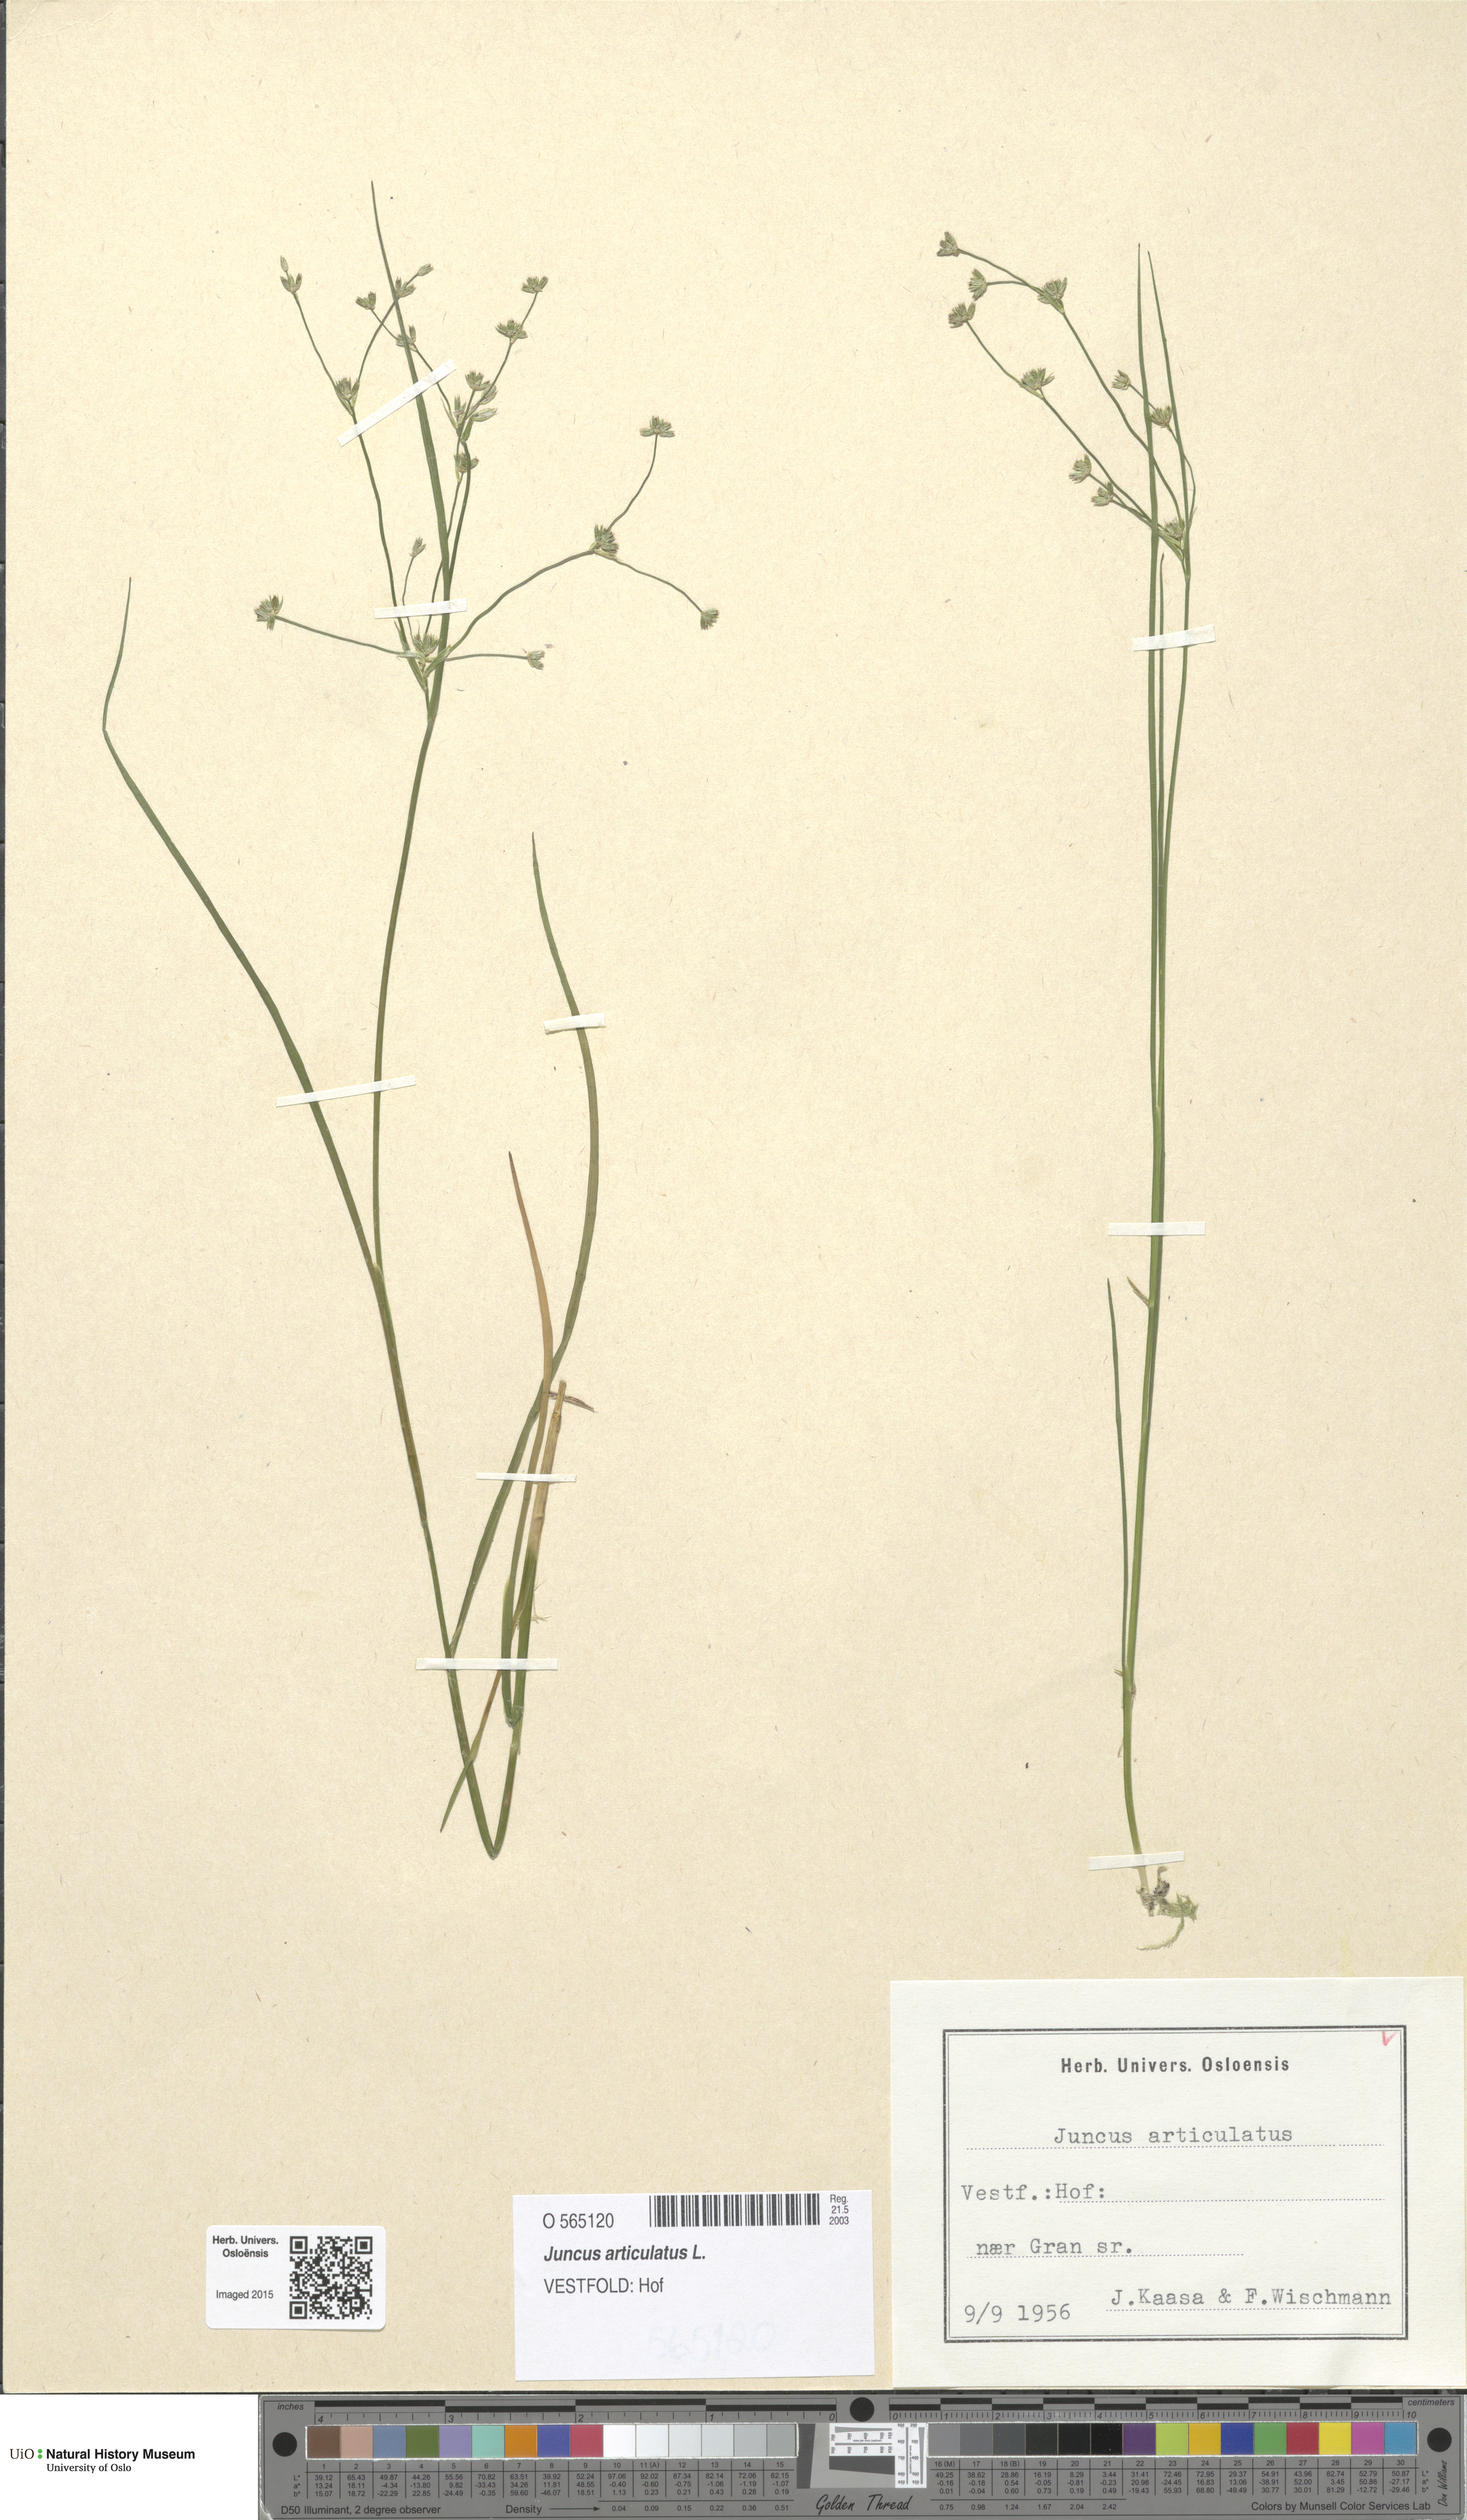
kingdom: Plantae
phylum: Tracheophyta
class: Liliopsida
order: Poales
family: Juncaceae
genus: Juncus
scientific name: Juncus articulatus
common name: Jointed rush
